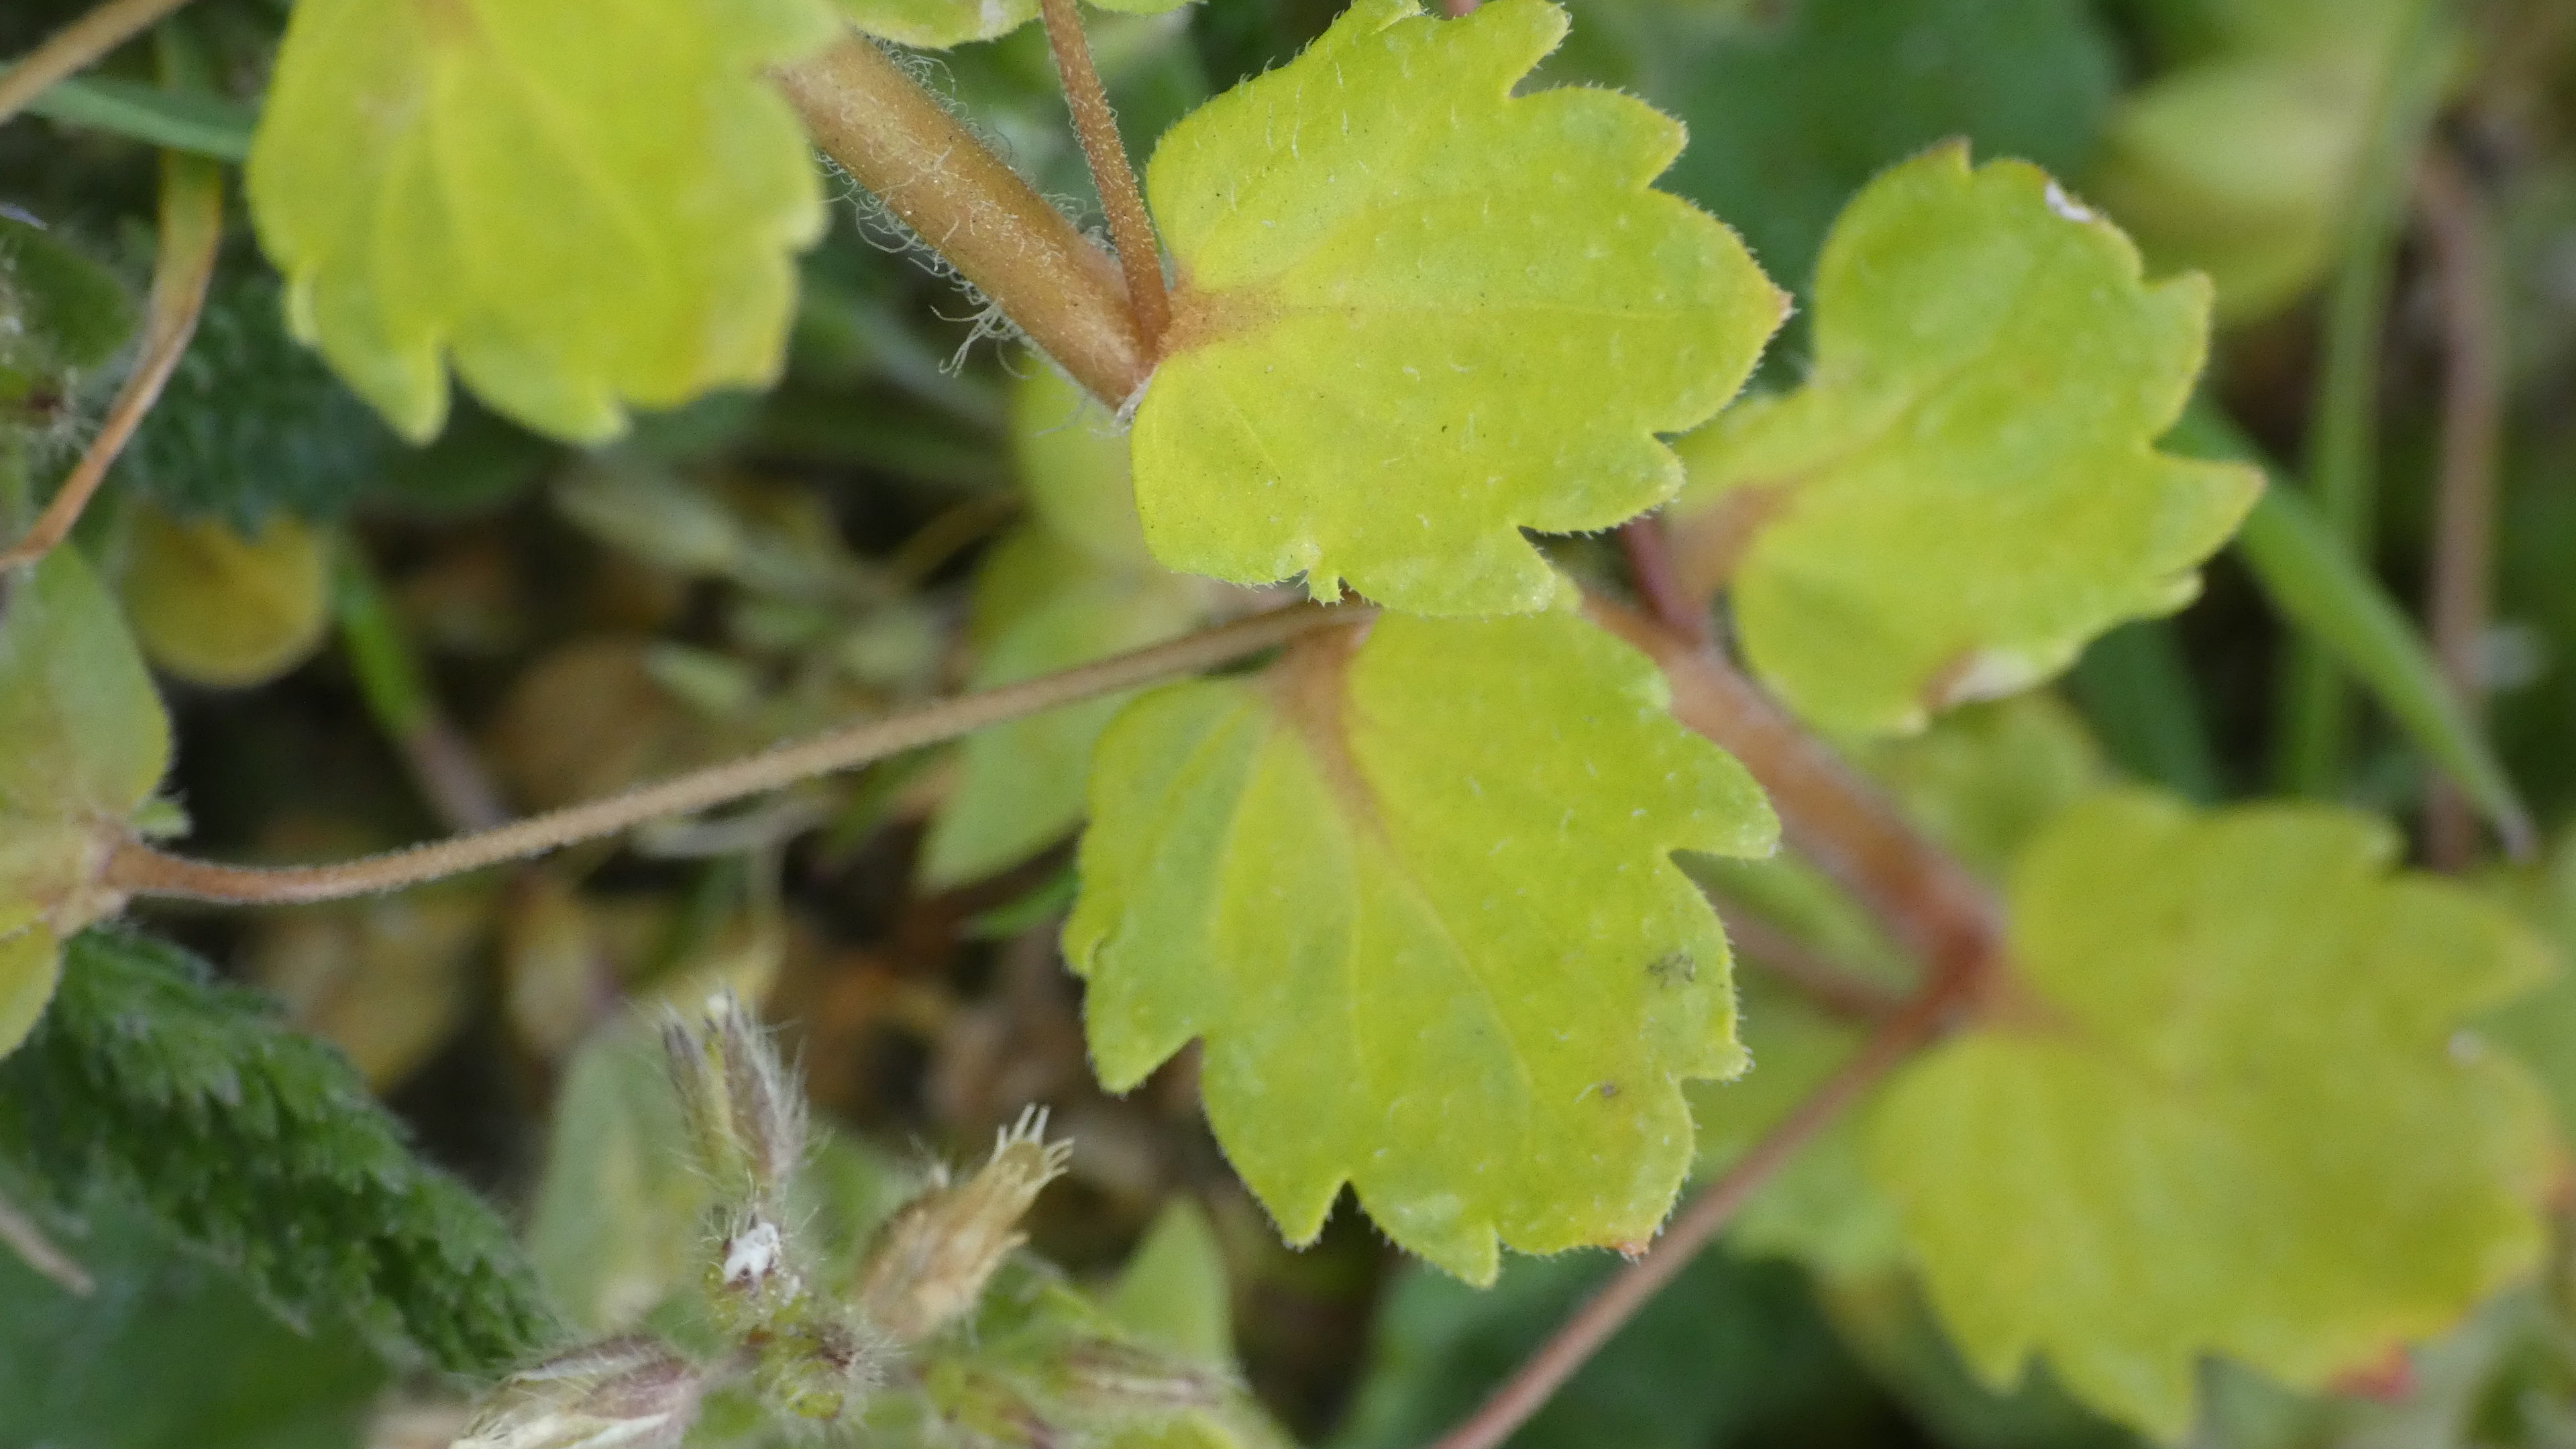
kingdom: Plantae
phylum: Tracheophyta
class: Magnoliopsida
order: Lamiales
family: Plantaginaceae
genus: Veronica
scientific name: Veronica persica
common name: Storkronet ærenpris
